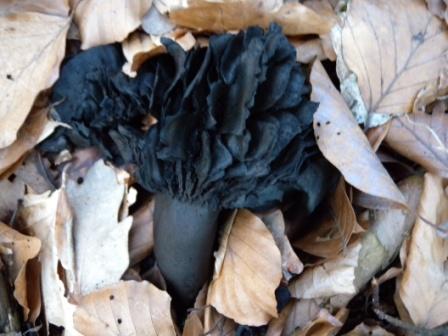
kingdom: Fungi
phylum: Basidiomycota
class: Agaricomycetes
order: Russulales
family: Russulaceae
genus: Russula
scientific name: Russula adusta
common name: sværtende skørhat
